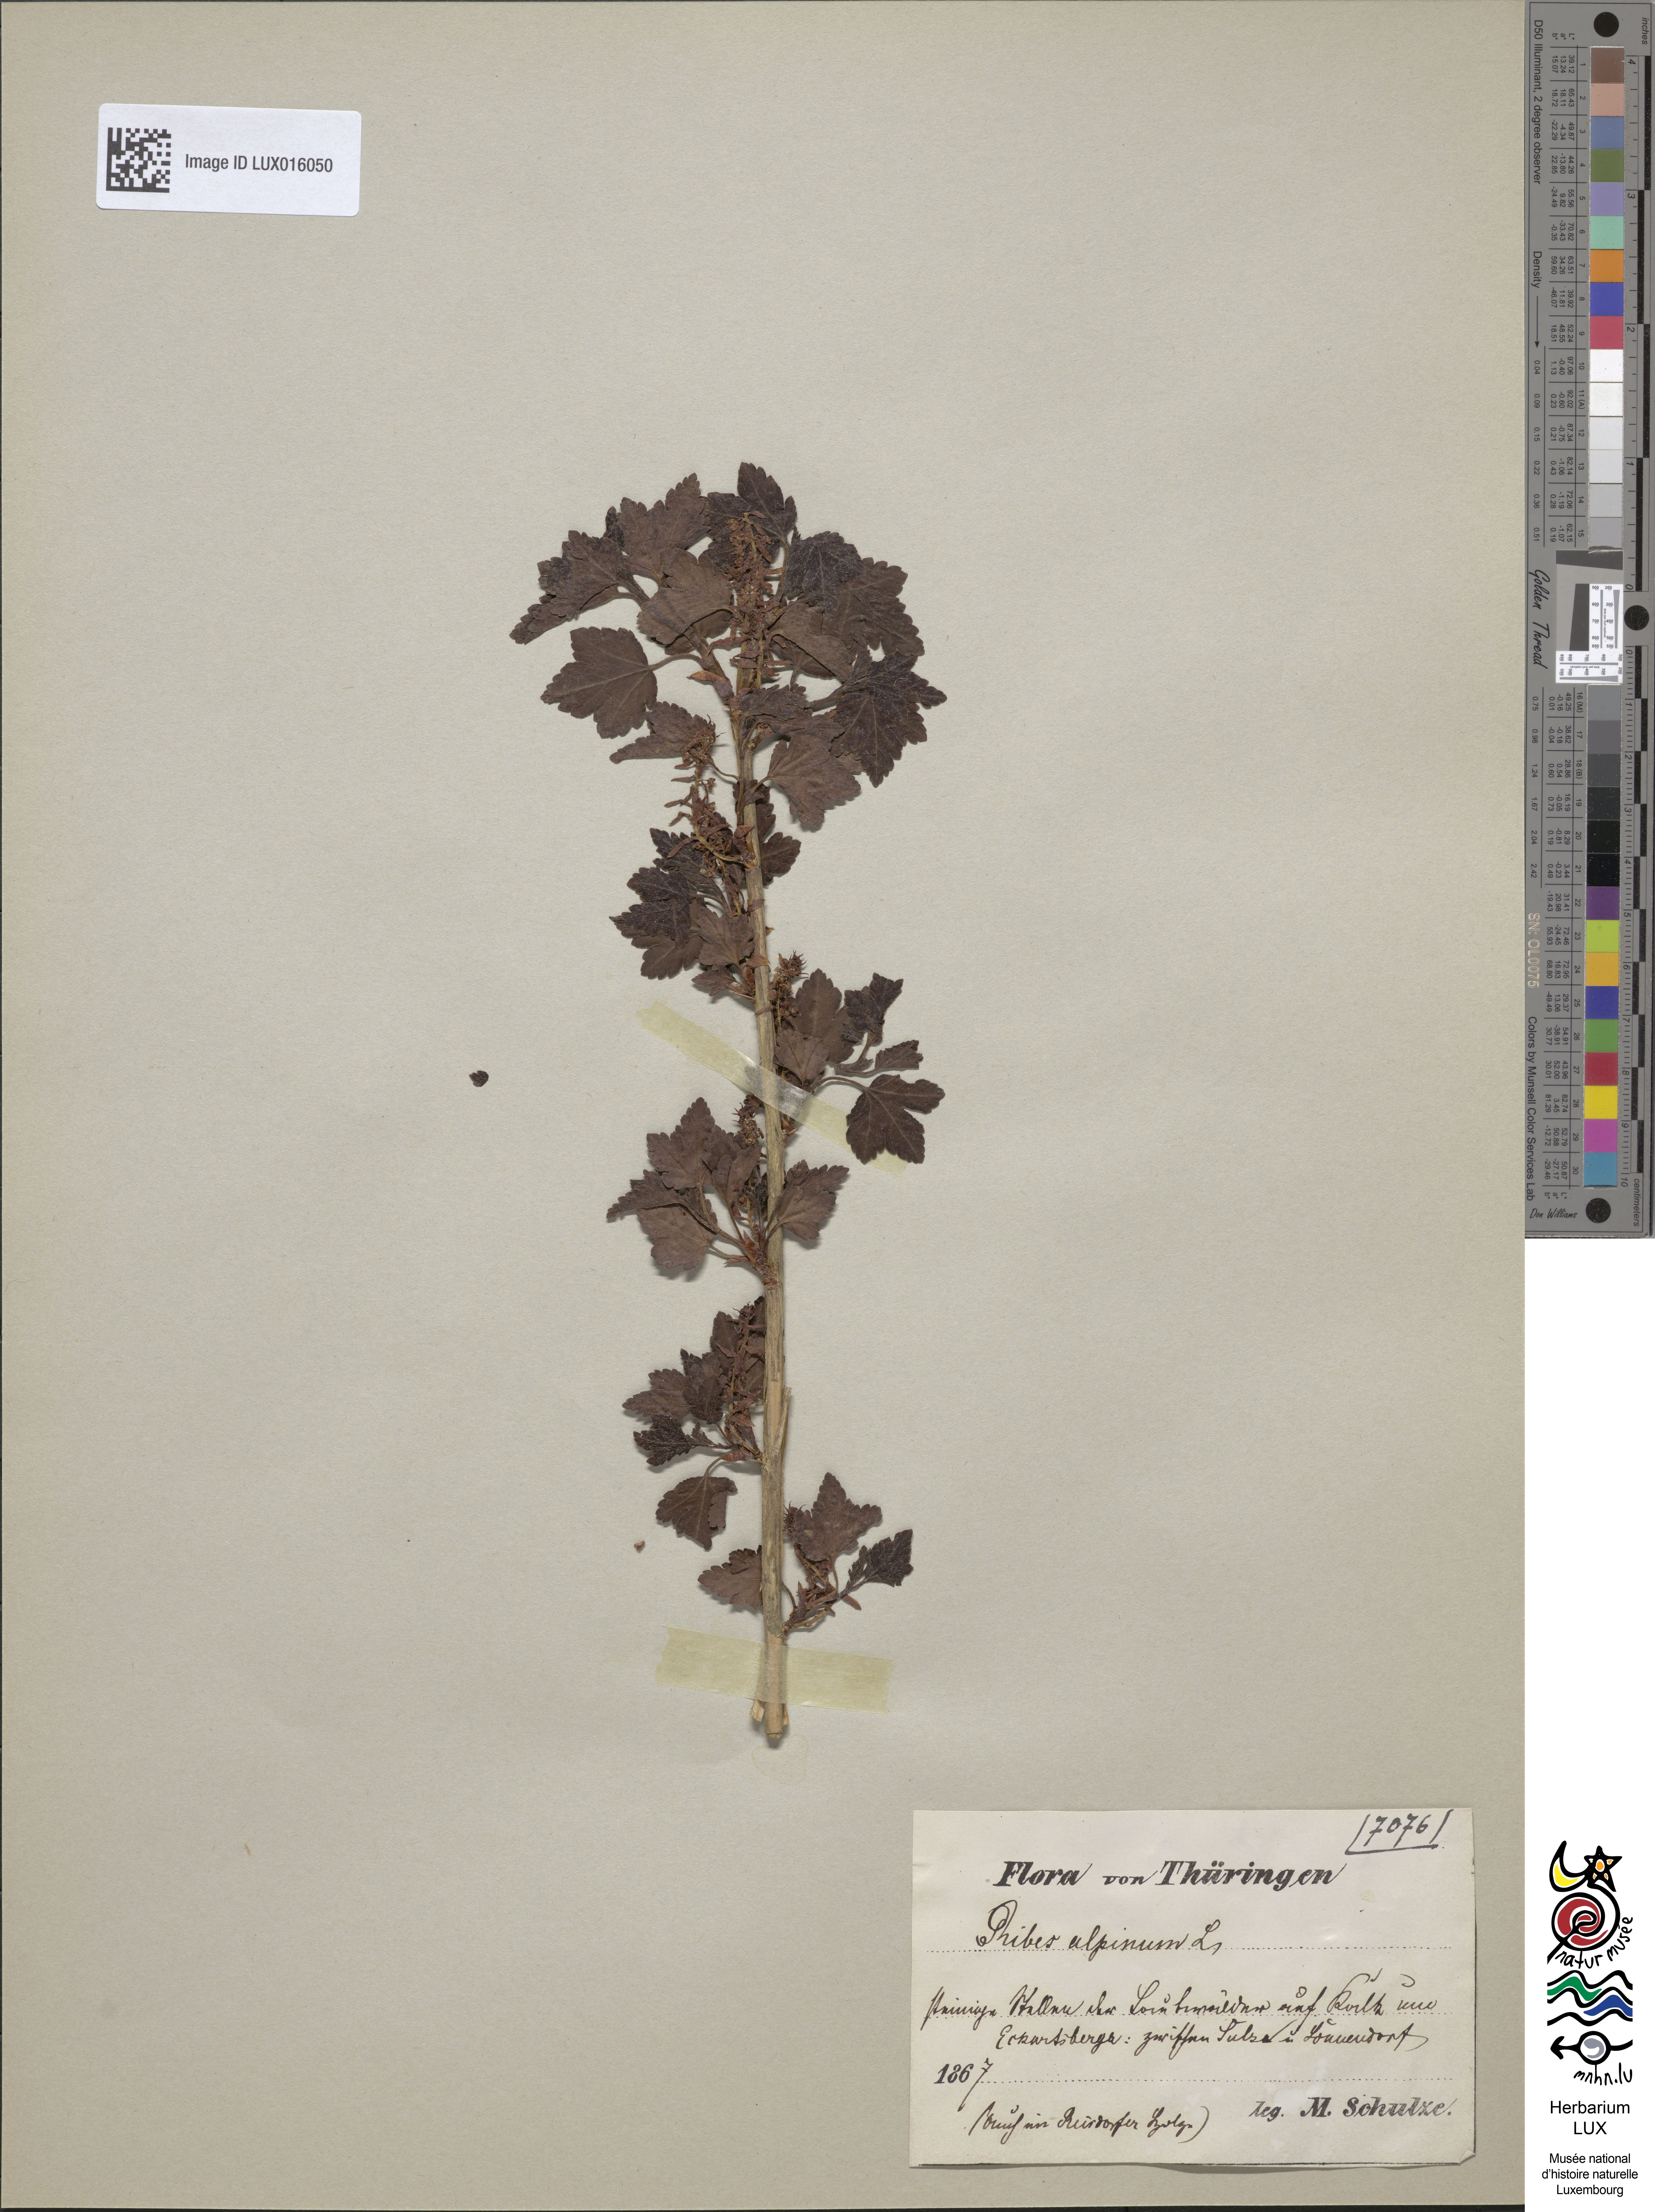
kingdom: Plantae
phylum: Tracheophyta
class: Magnoliopsida
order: Saxifragales
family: Grossulariaceae
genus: Ribes
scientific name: Ribes alpinum
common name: Alpine currant
